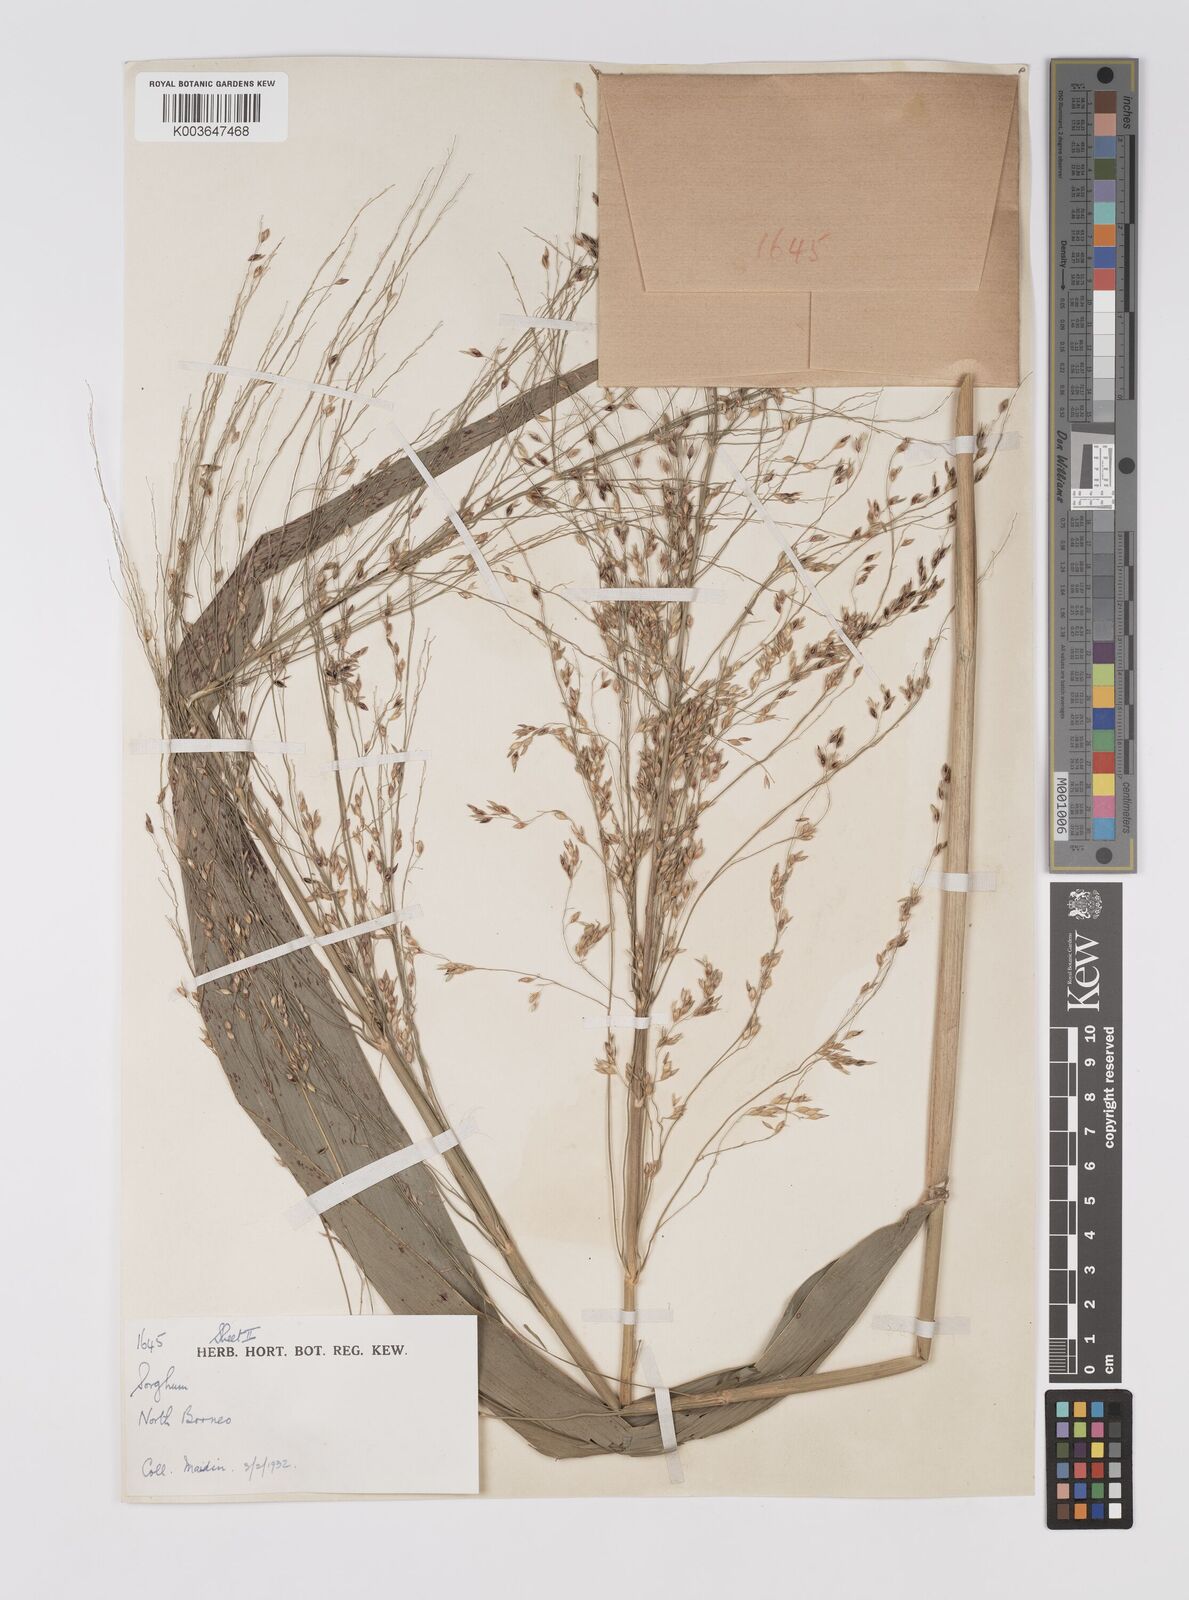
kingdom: Plantae
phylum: Tracheophyta
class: Liliopsida
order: Poales
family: Poaceae
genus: Sorghum
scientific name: Sorghum propinquum
